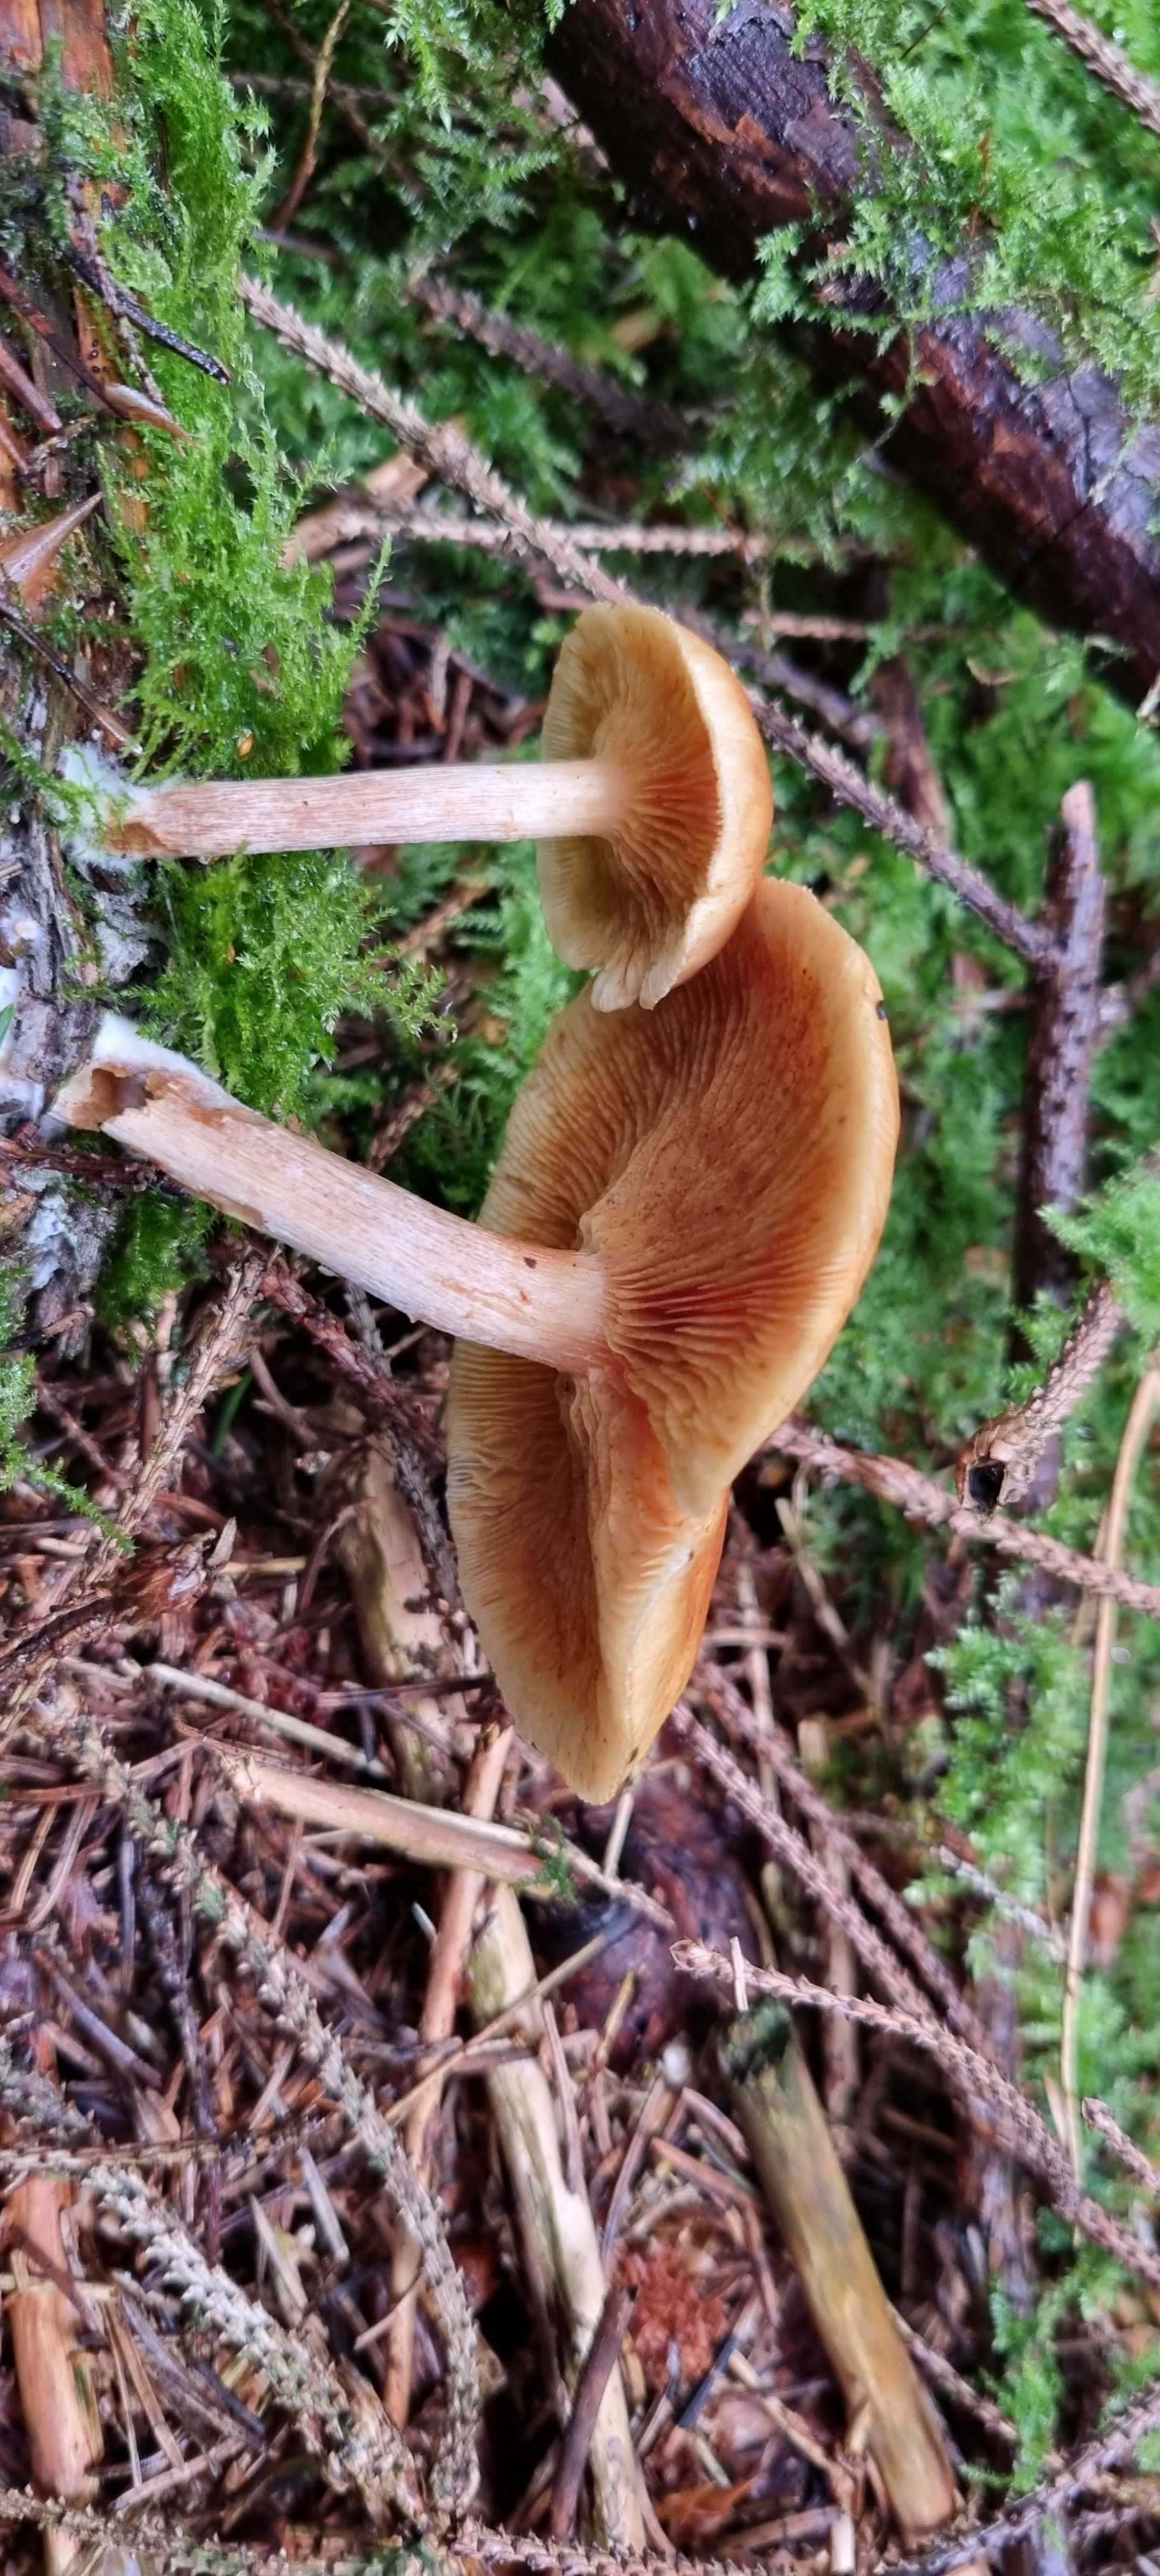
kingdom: Fungi
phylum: Basidiomycota
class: Agaricomycetes
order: Agaricales
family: Hymenogastraceae
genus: Gymnopilus
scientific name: Gymnopilus penetrans
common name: plettet flammehat
